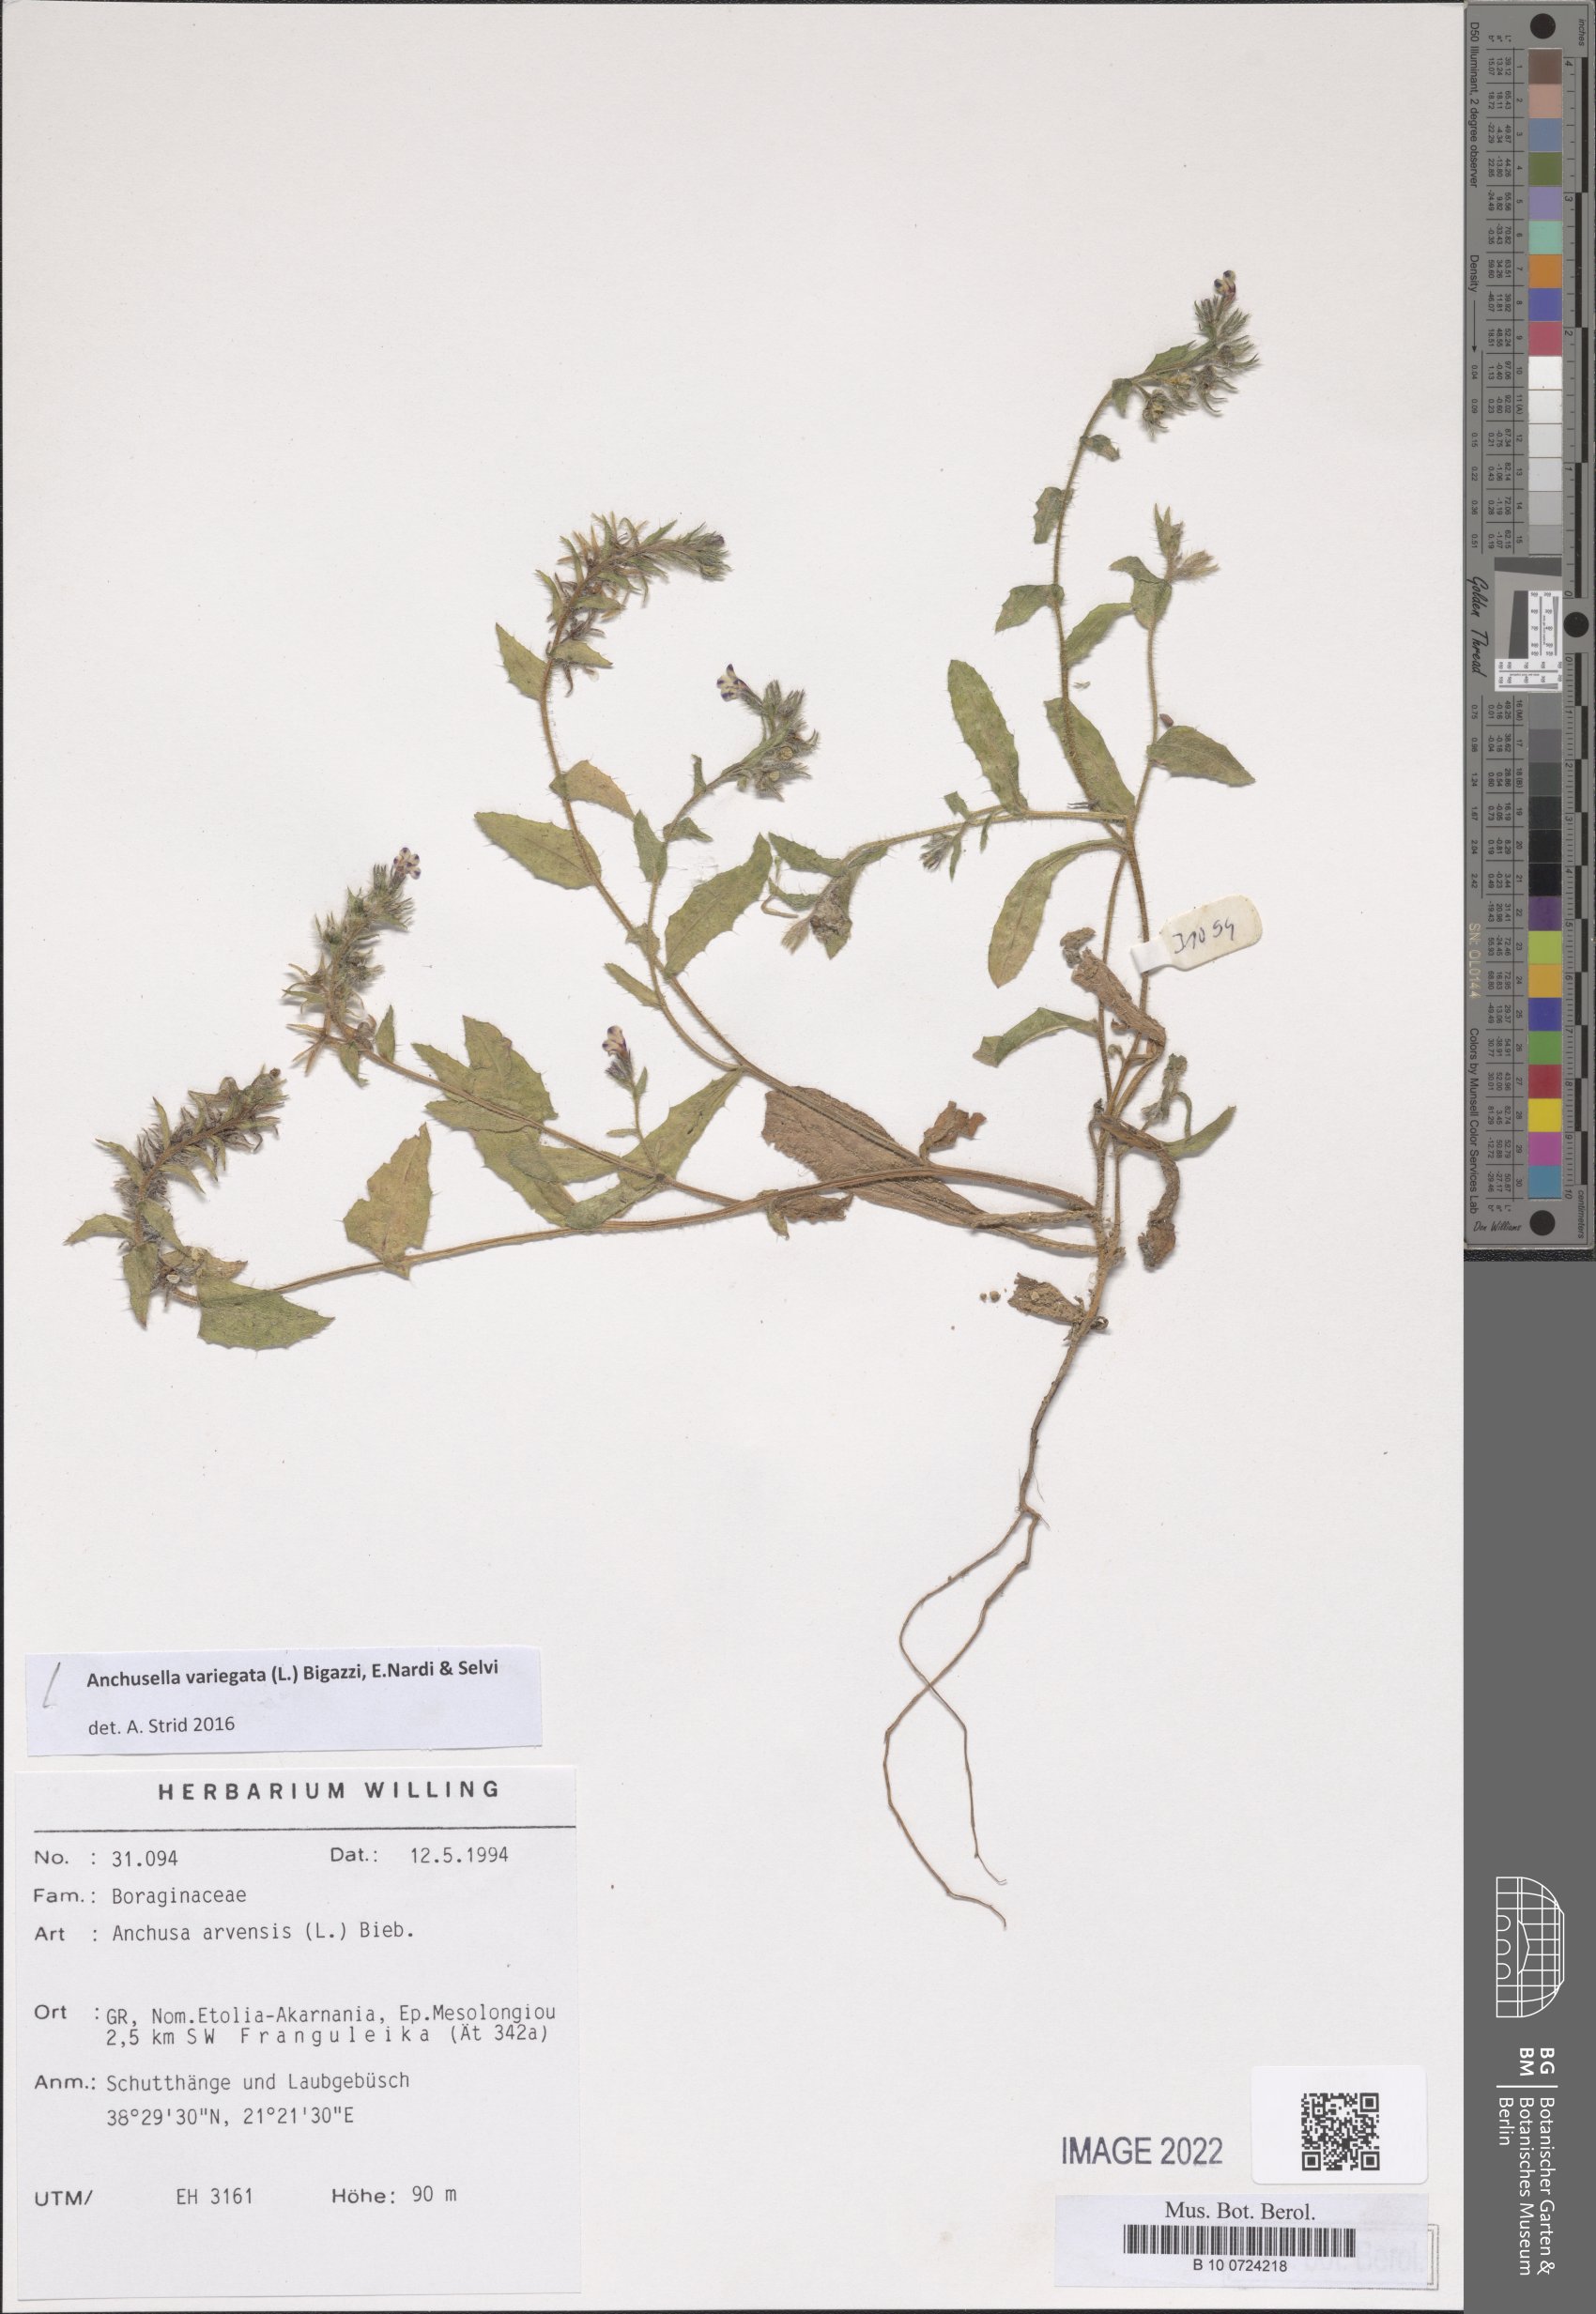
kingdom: Plantae
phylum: Tracheophyta
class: Magnoliopsida
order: Boraginales
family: Boraginaceae
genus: Anchusella
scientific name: Anchusella variegata
